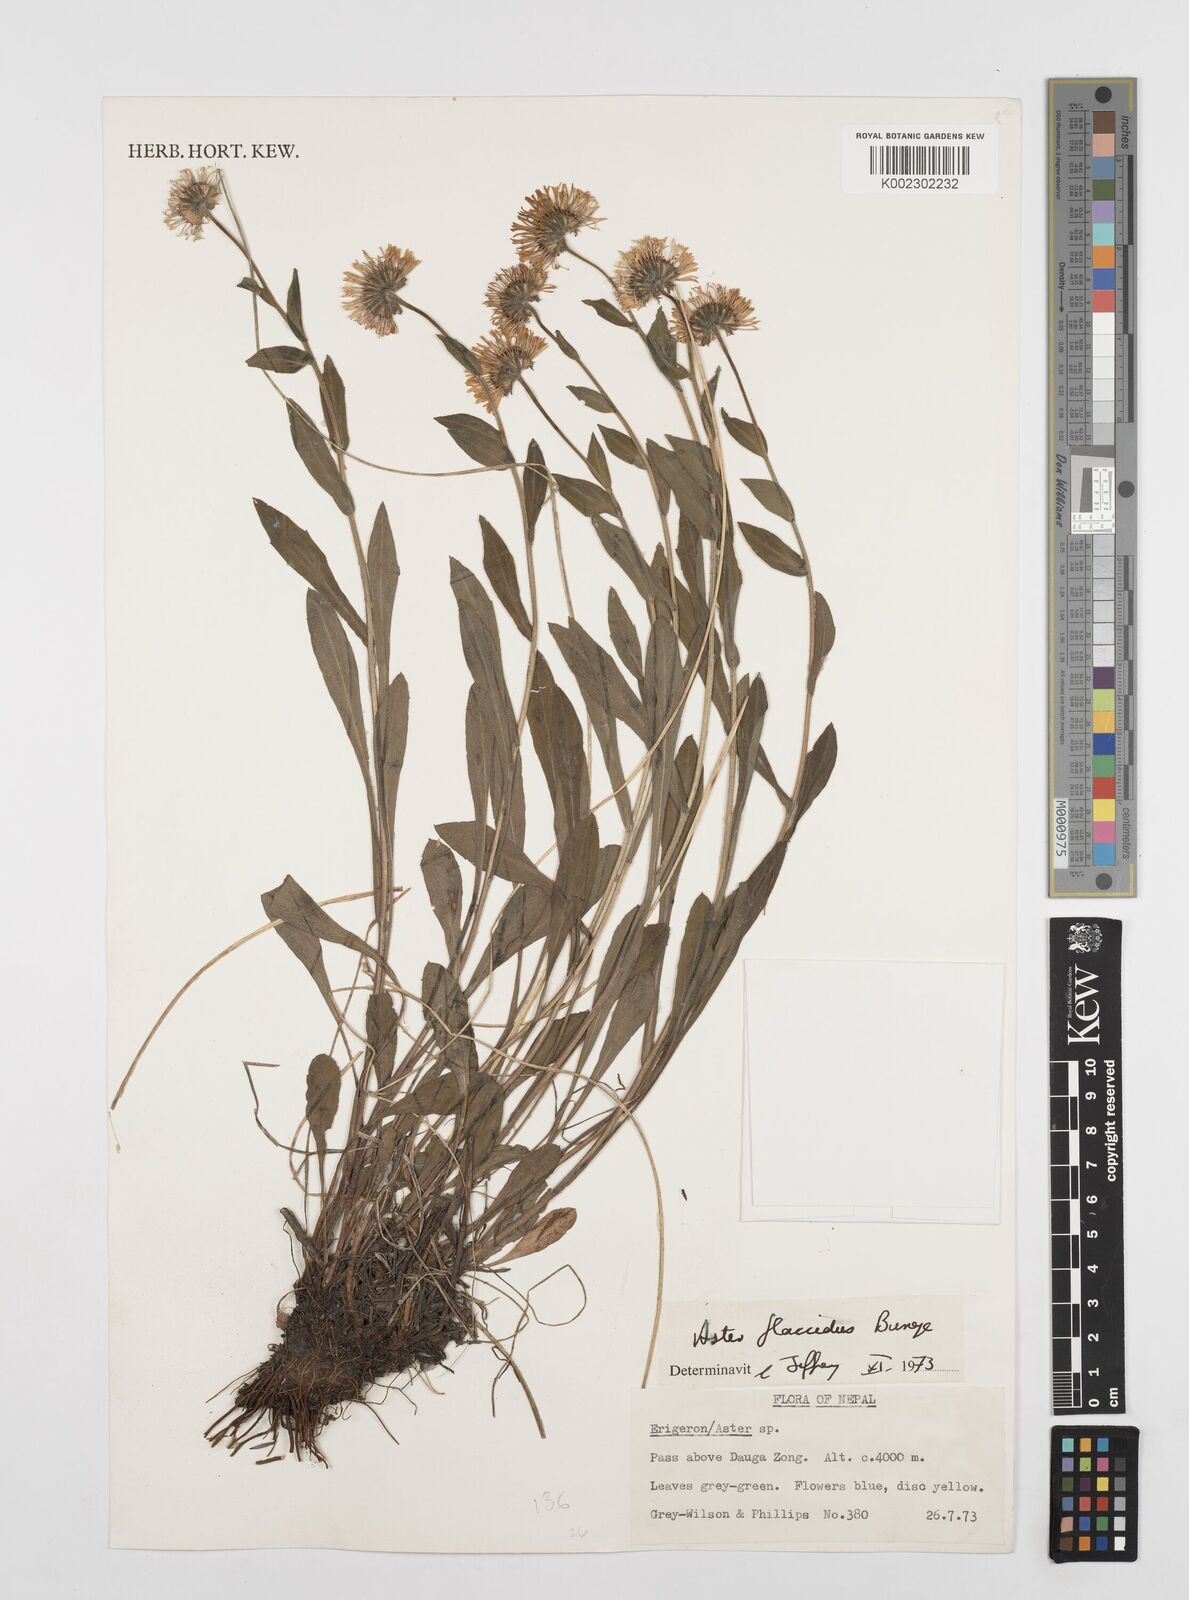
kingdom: Plantae
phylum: Tracheophyta
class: Magnoliopsida
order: Asterales
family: Asteraceae
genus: Erigeron
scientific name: Erigeron multiradiatus
